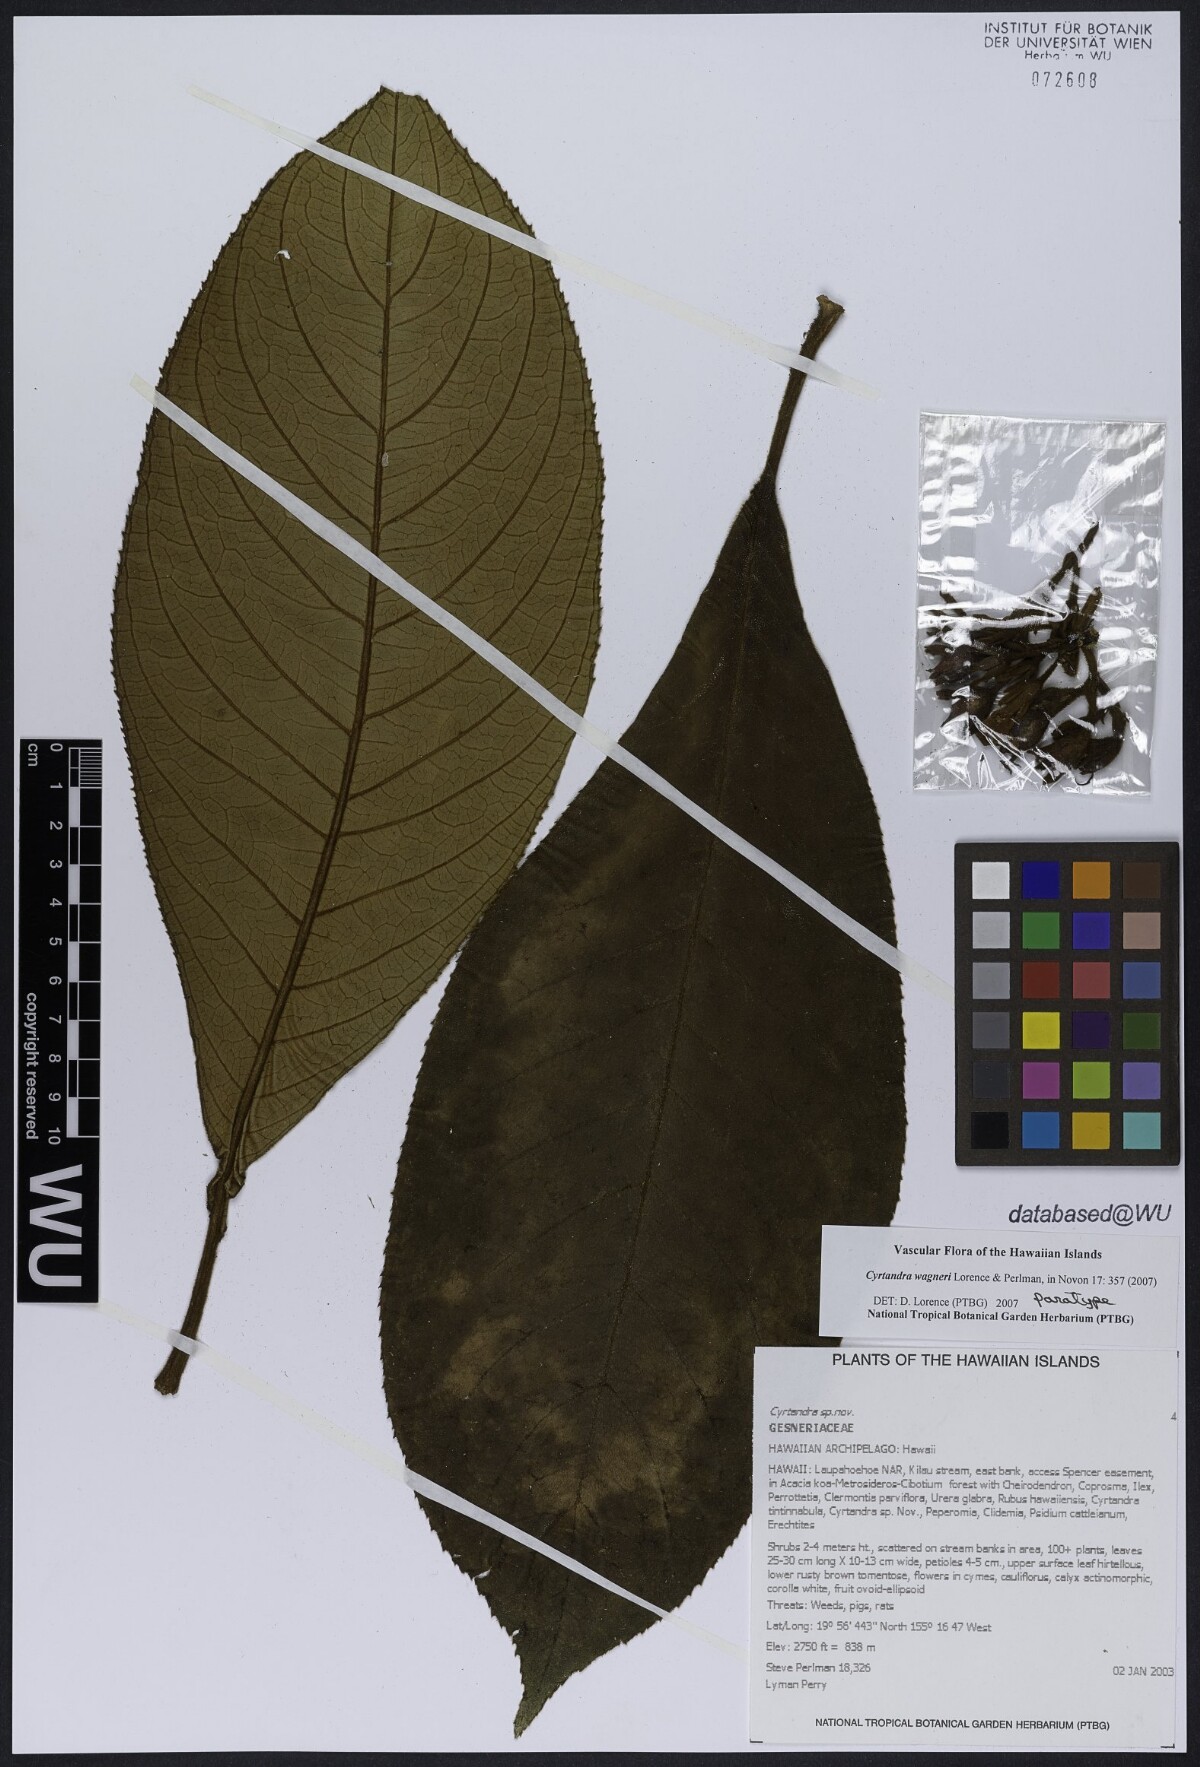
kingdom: Plantae
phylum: Tracheophyta
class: Magnoliopsida
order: Lamiales
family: Gesneriaceae
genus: Cyrtandra
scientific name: Cyrtandra wagneri
